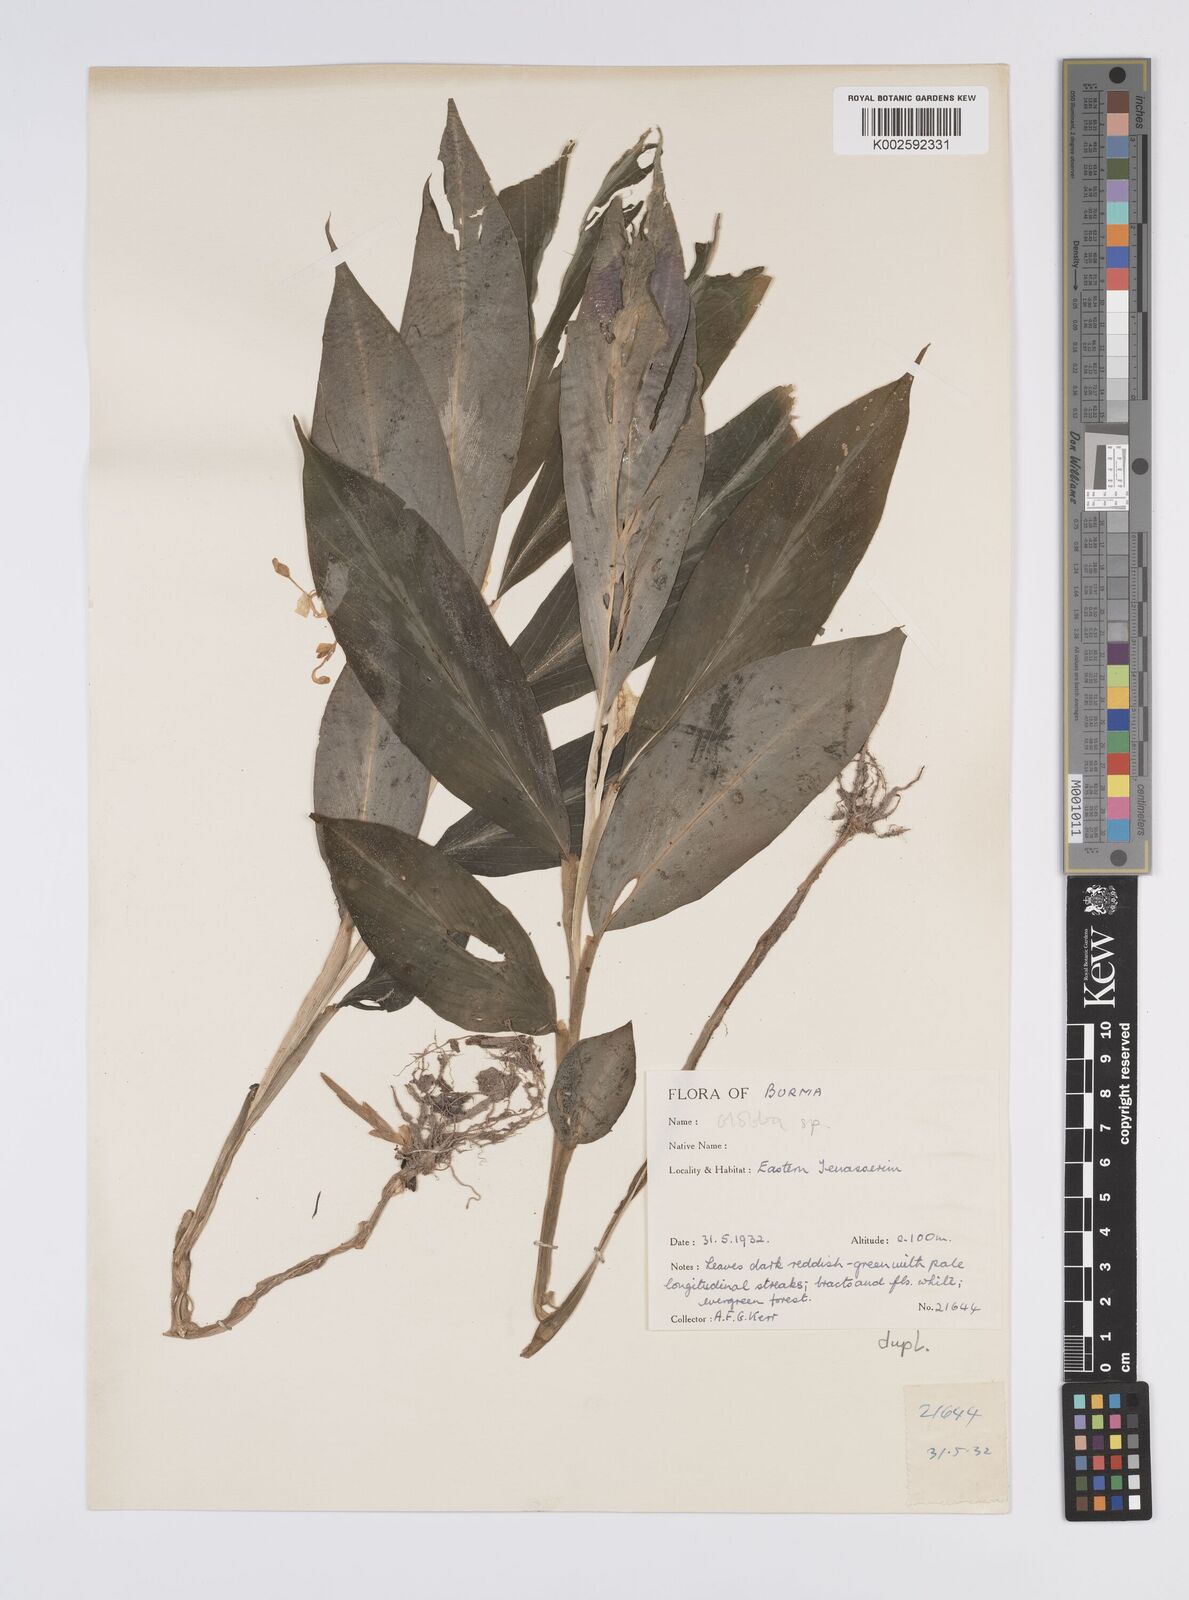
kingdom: Plantae
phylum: Tracheophyta
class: Liliopsida
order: Zingiberales
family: Zingiberaceae
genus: Globba
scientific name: Globba
